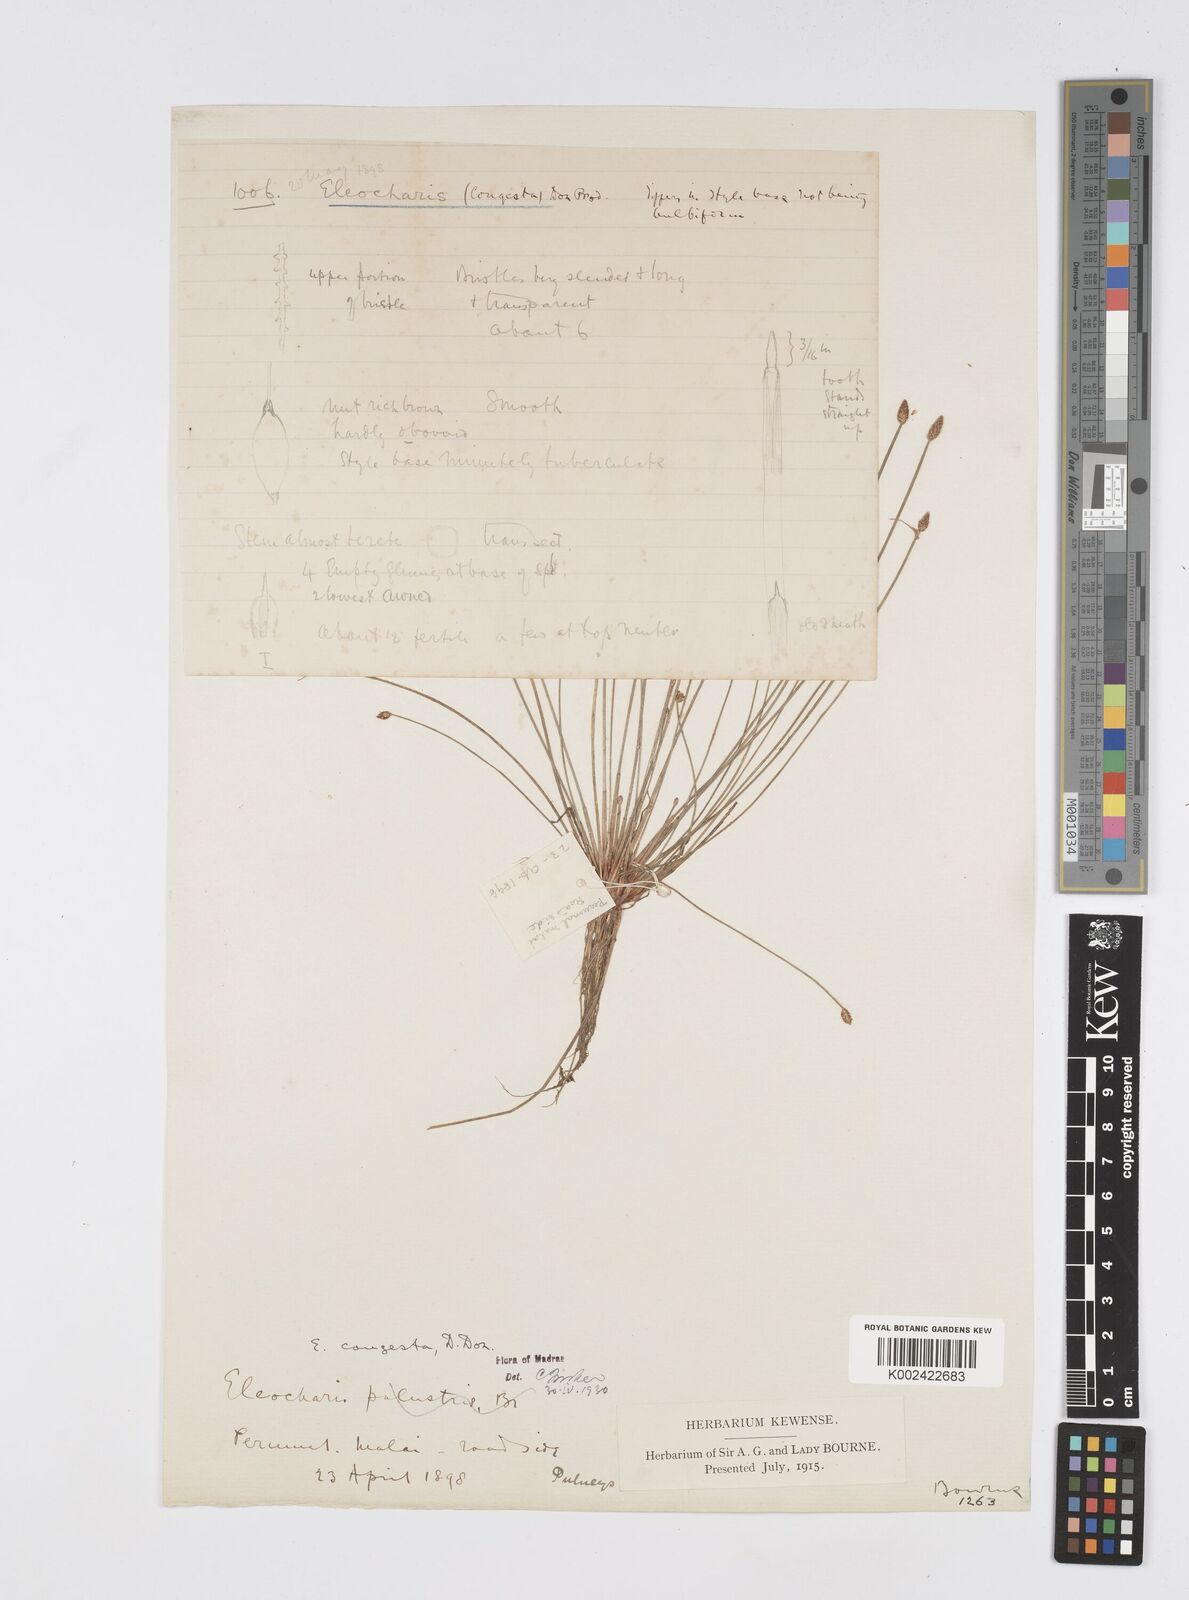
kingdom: Plantae
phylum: Tracheophyta
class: Liliopsida
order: Poales
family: Cyperaceae
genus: Eleocharis
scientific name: Eleocharis congesta
